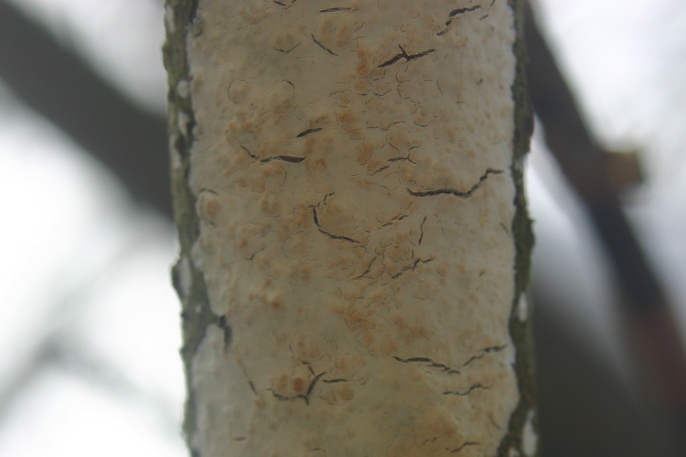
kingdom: Fungi
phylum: Basidiomycota
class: Agaricomycetes
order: Agaricales
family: Radulomycetaceae
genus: Radulomyces
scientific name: Radulomyces confluens
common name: glat naftalinskind
